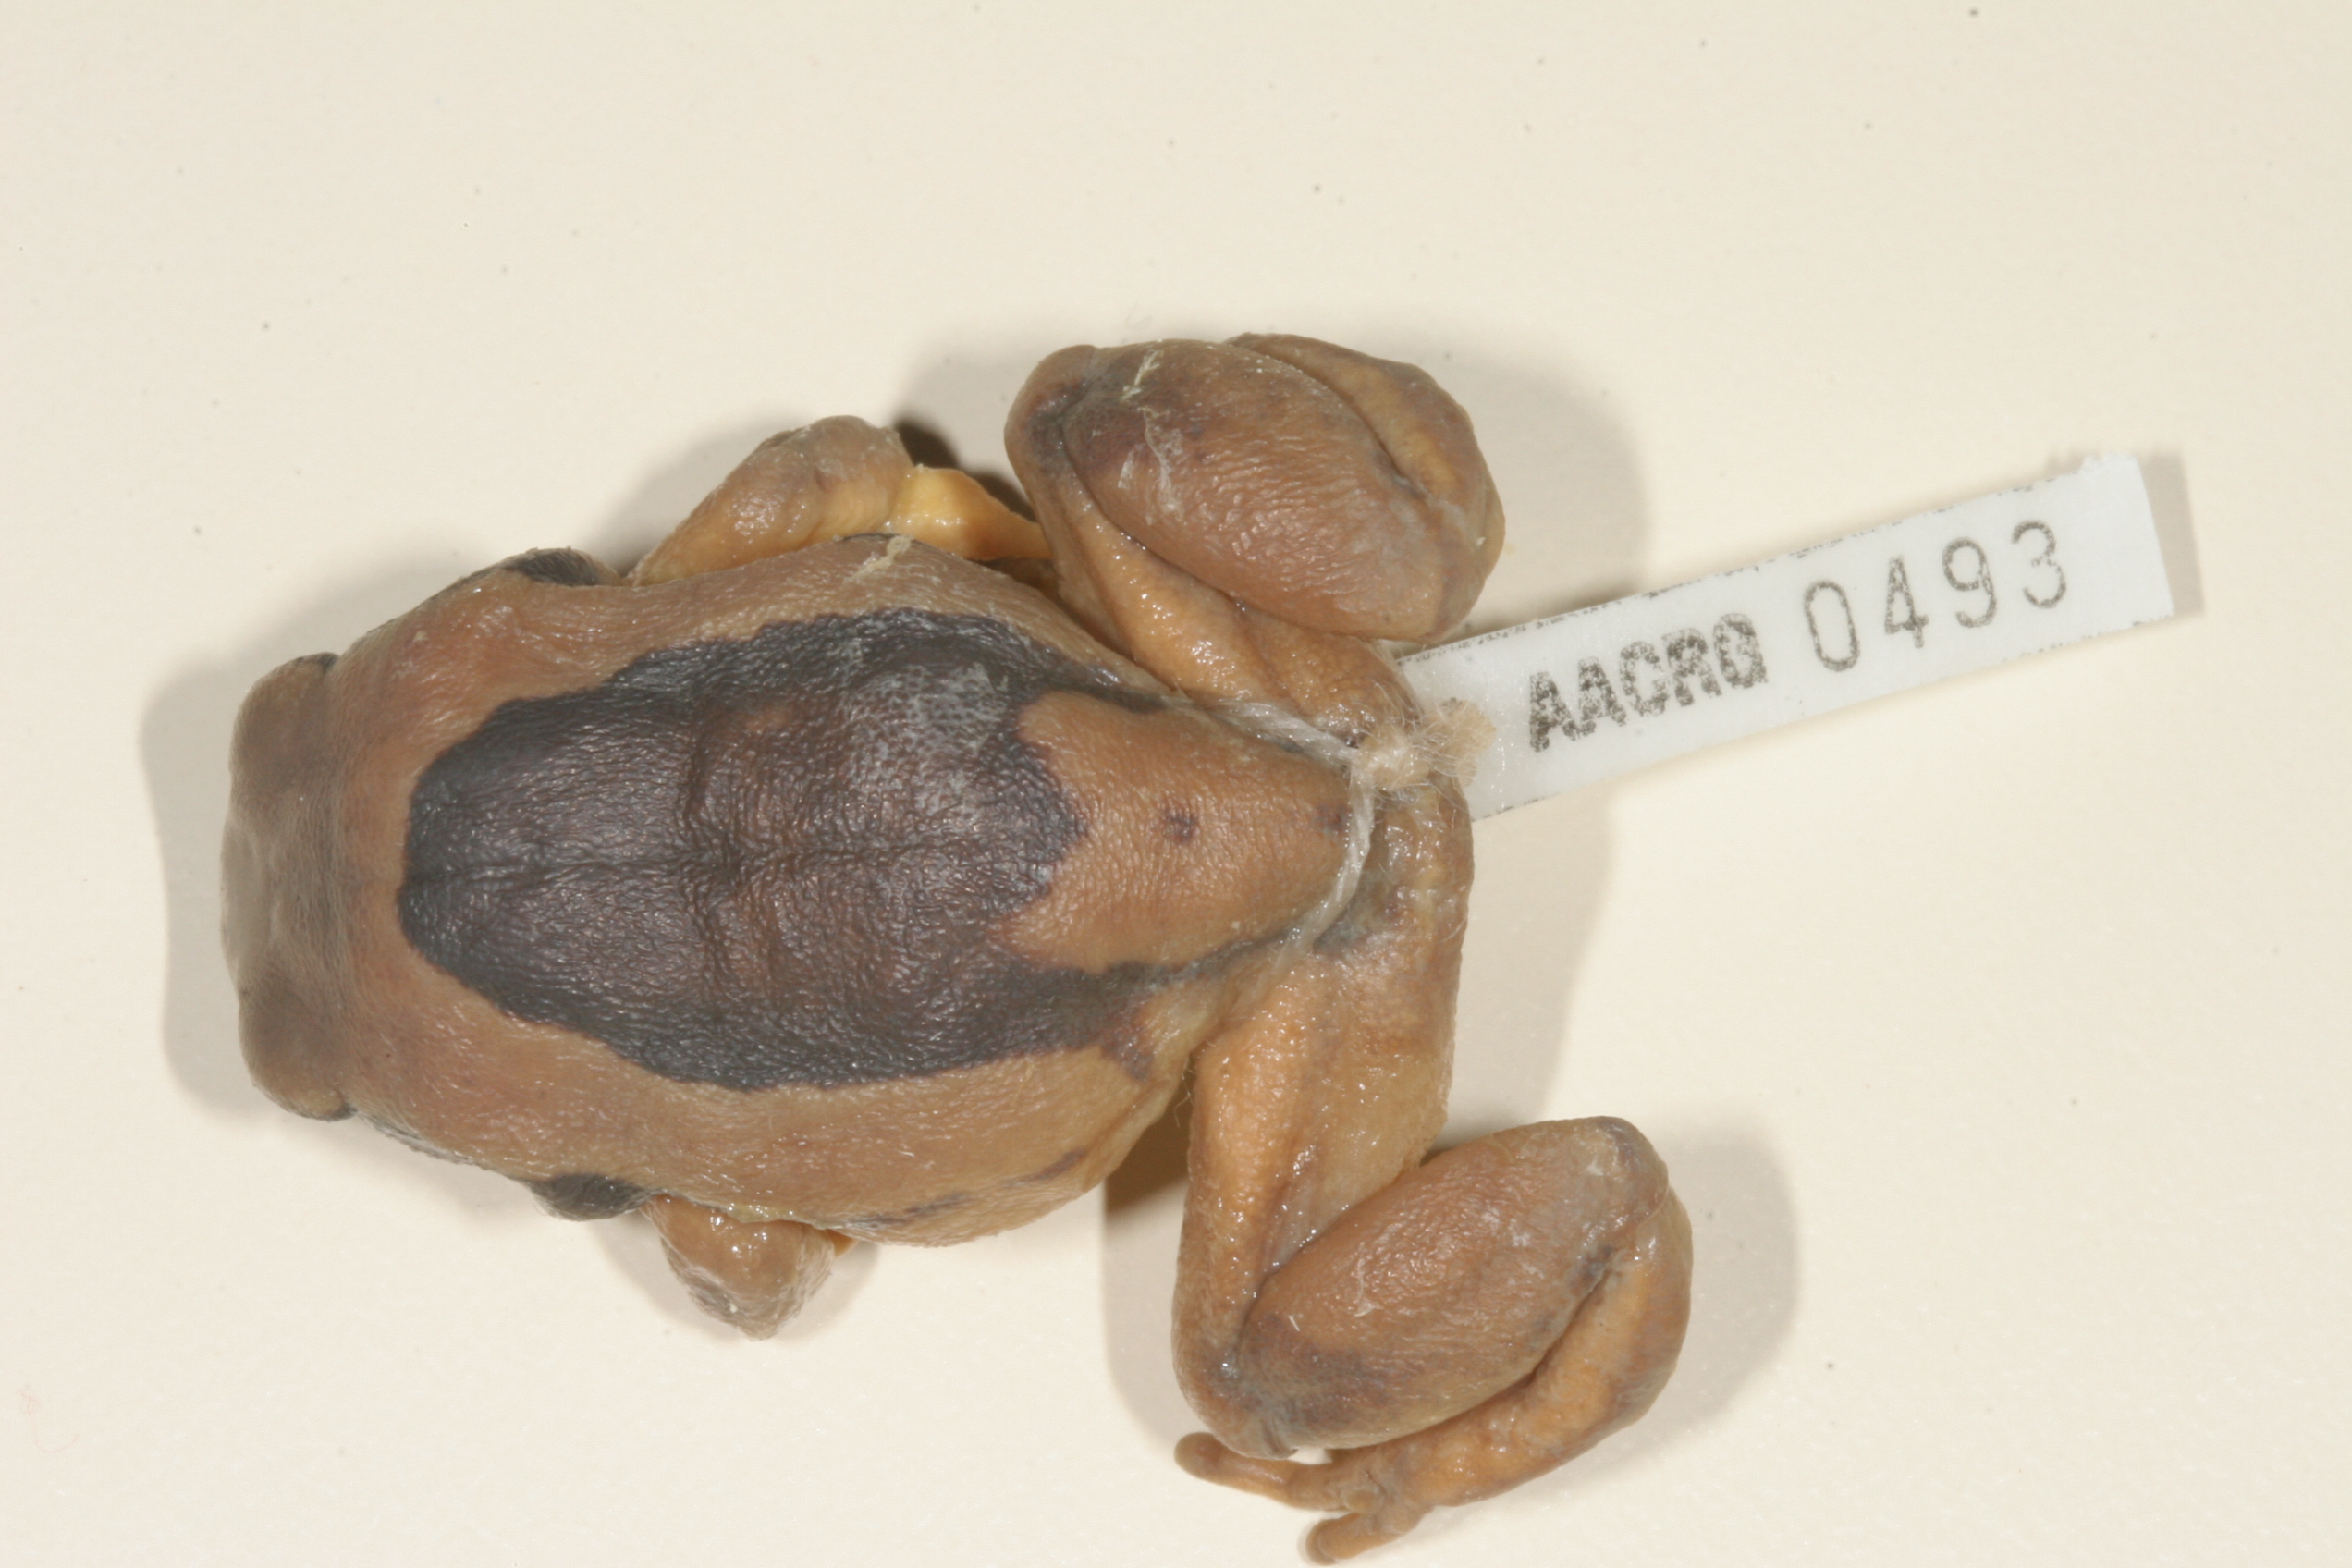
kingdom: Animalia
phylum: Chordata
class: Amphibia
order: Anura
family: Arthroleptidae
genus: Leptopelis
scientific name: Leptopelis mossambicus
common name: Mozambique tree frog
